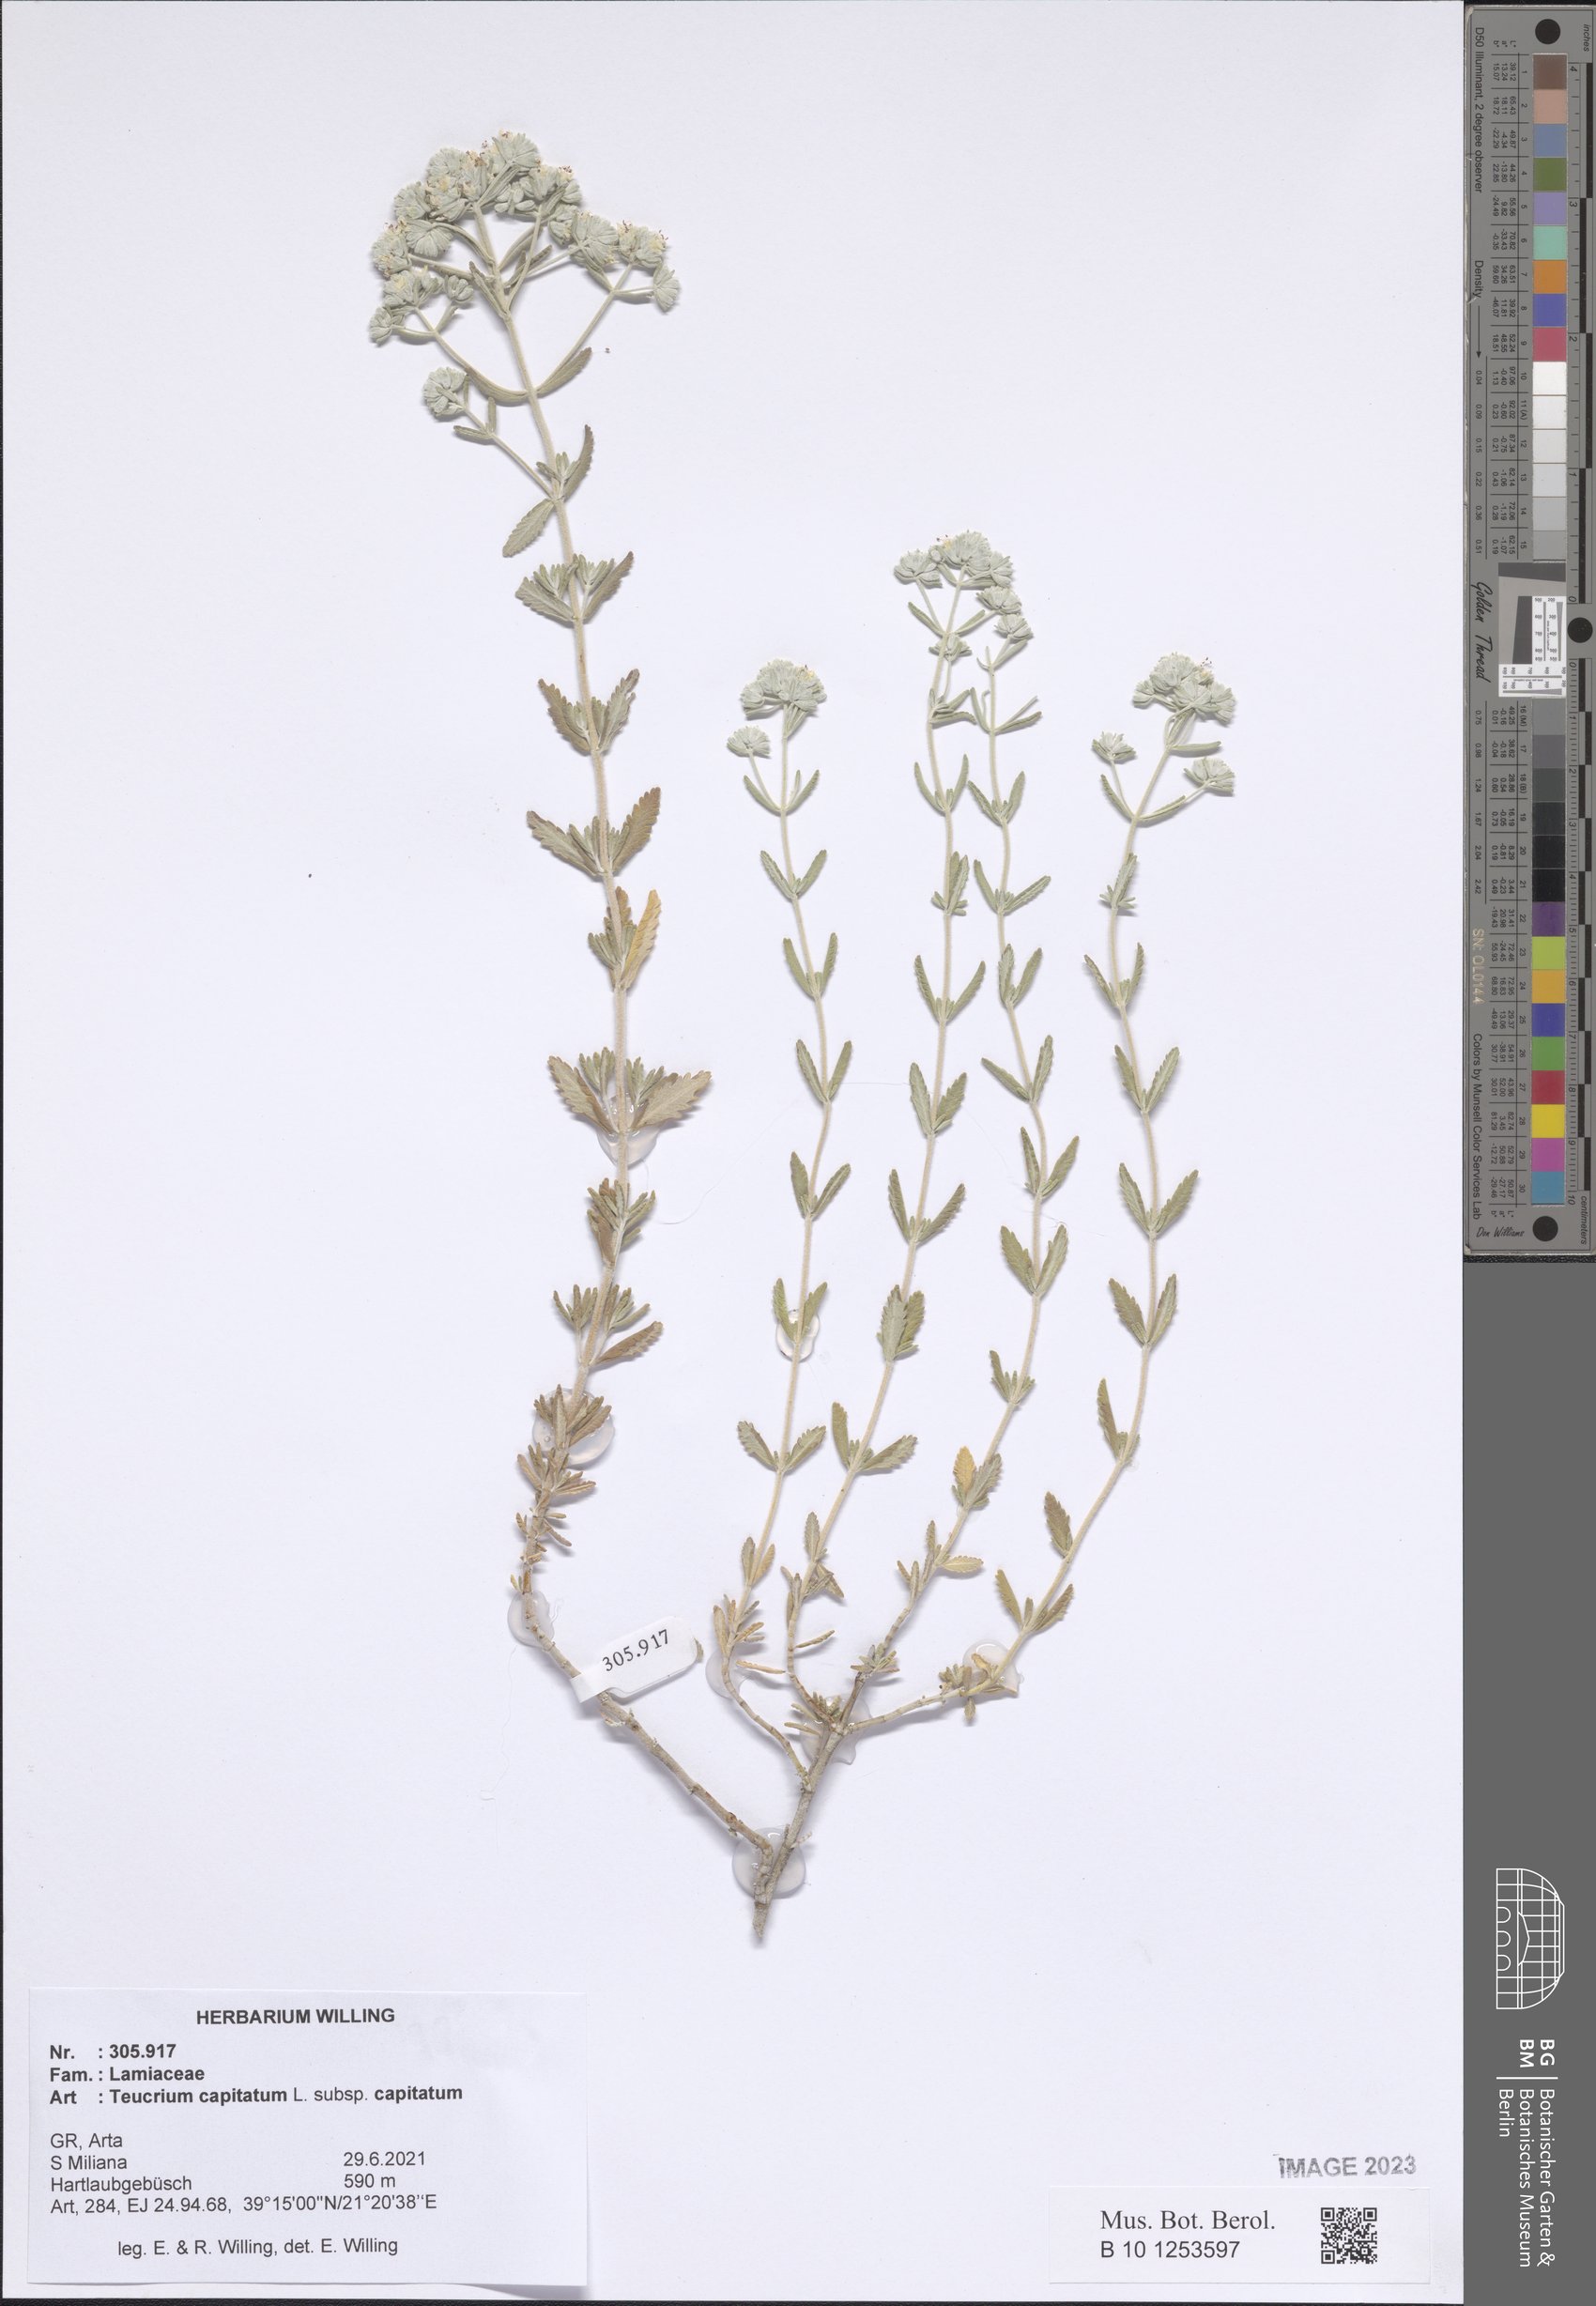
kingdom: Plantae
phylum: Tracheophyta
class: Magnoliopsida
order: Lamiales
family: Lamiaceae
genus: Teucrium
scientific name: Teucrium capitatum
